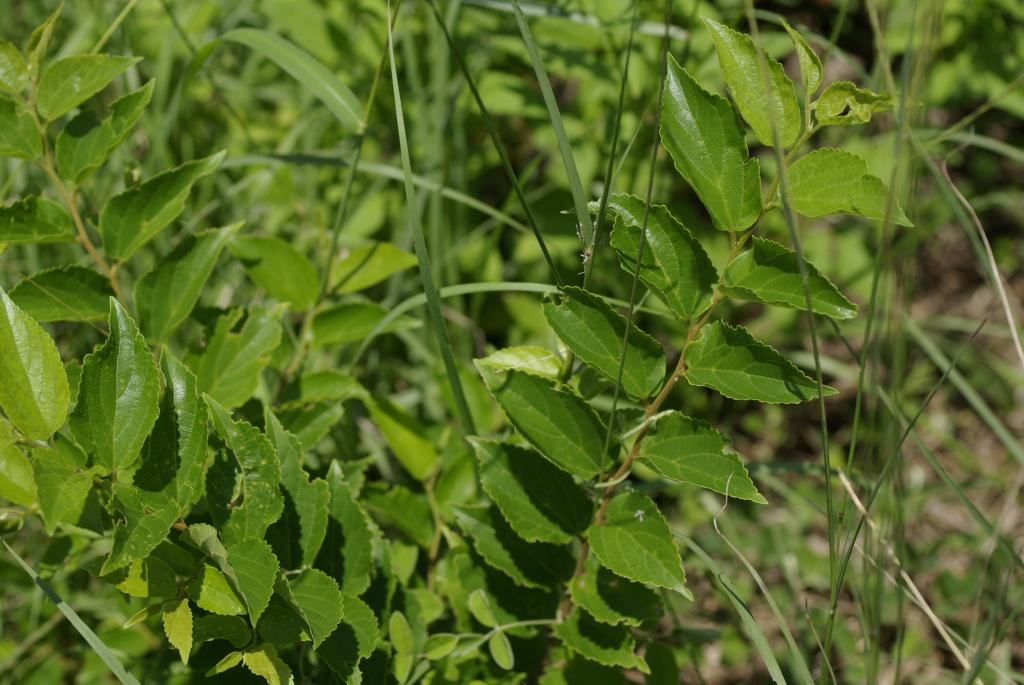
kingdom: Plantae
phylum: Tracheophyta
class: Magnoliopsida
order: Rosales
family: Cannabaceae
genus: Celtis
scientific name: Celtis sinensis
